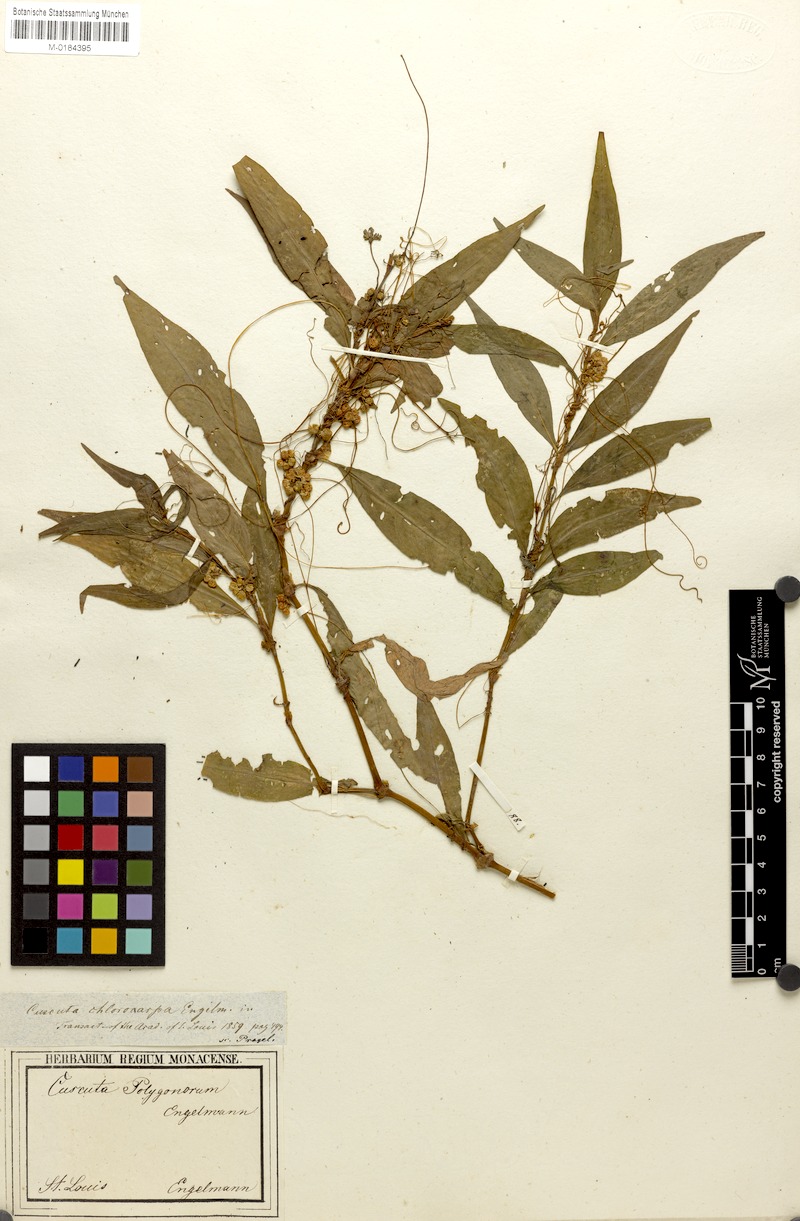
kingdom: Plantae
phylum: Tracheophyta
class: Magnoliopsida
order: Solanales
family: Convolvulaceae
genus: Cuscuta
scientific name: Cuscuta polygonorum
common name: Polygonum dodder
